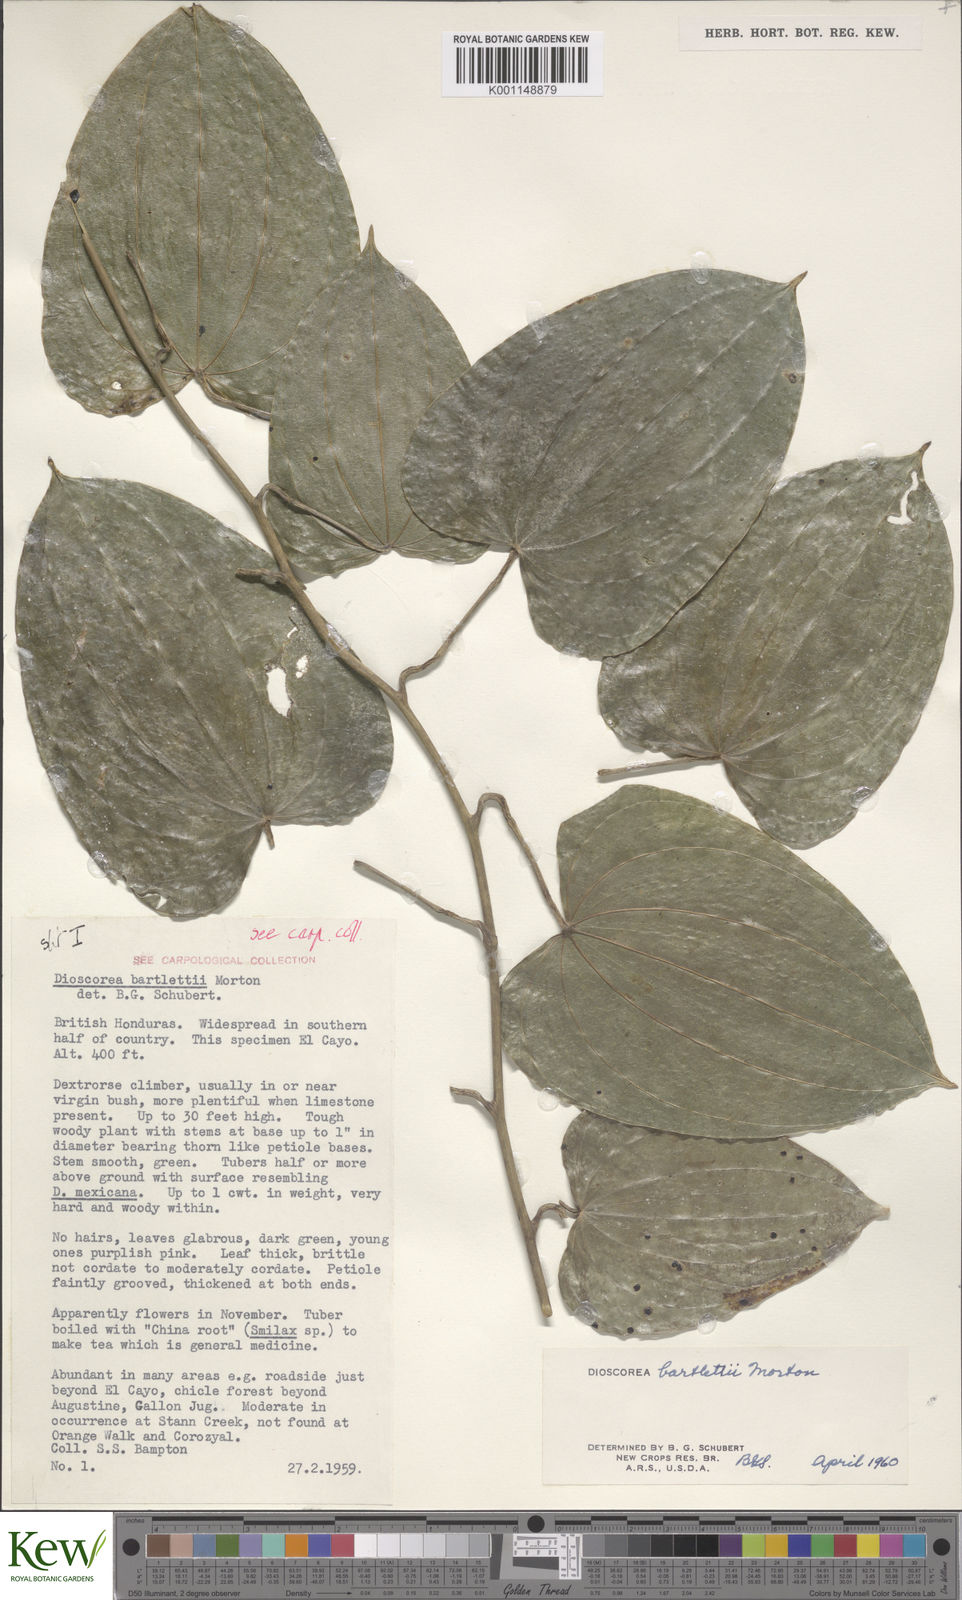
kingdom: Plantae
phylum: Tracheophyta
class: Liliopsida
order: Dioscoreales
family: Dioscoreaceae
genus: Dioscorea
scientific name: Dioscorea bartlettii
